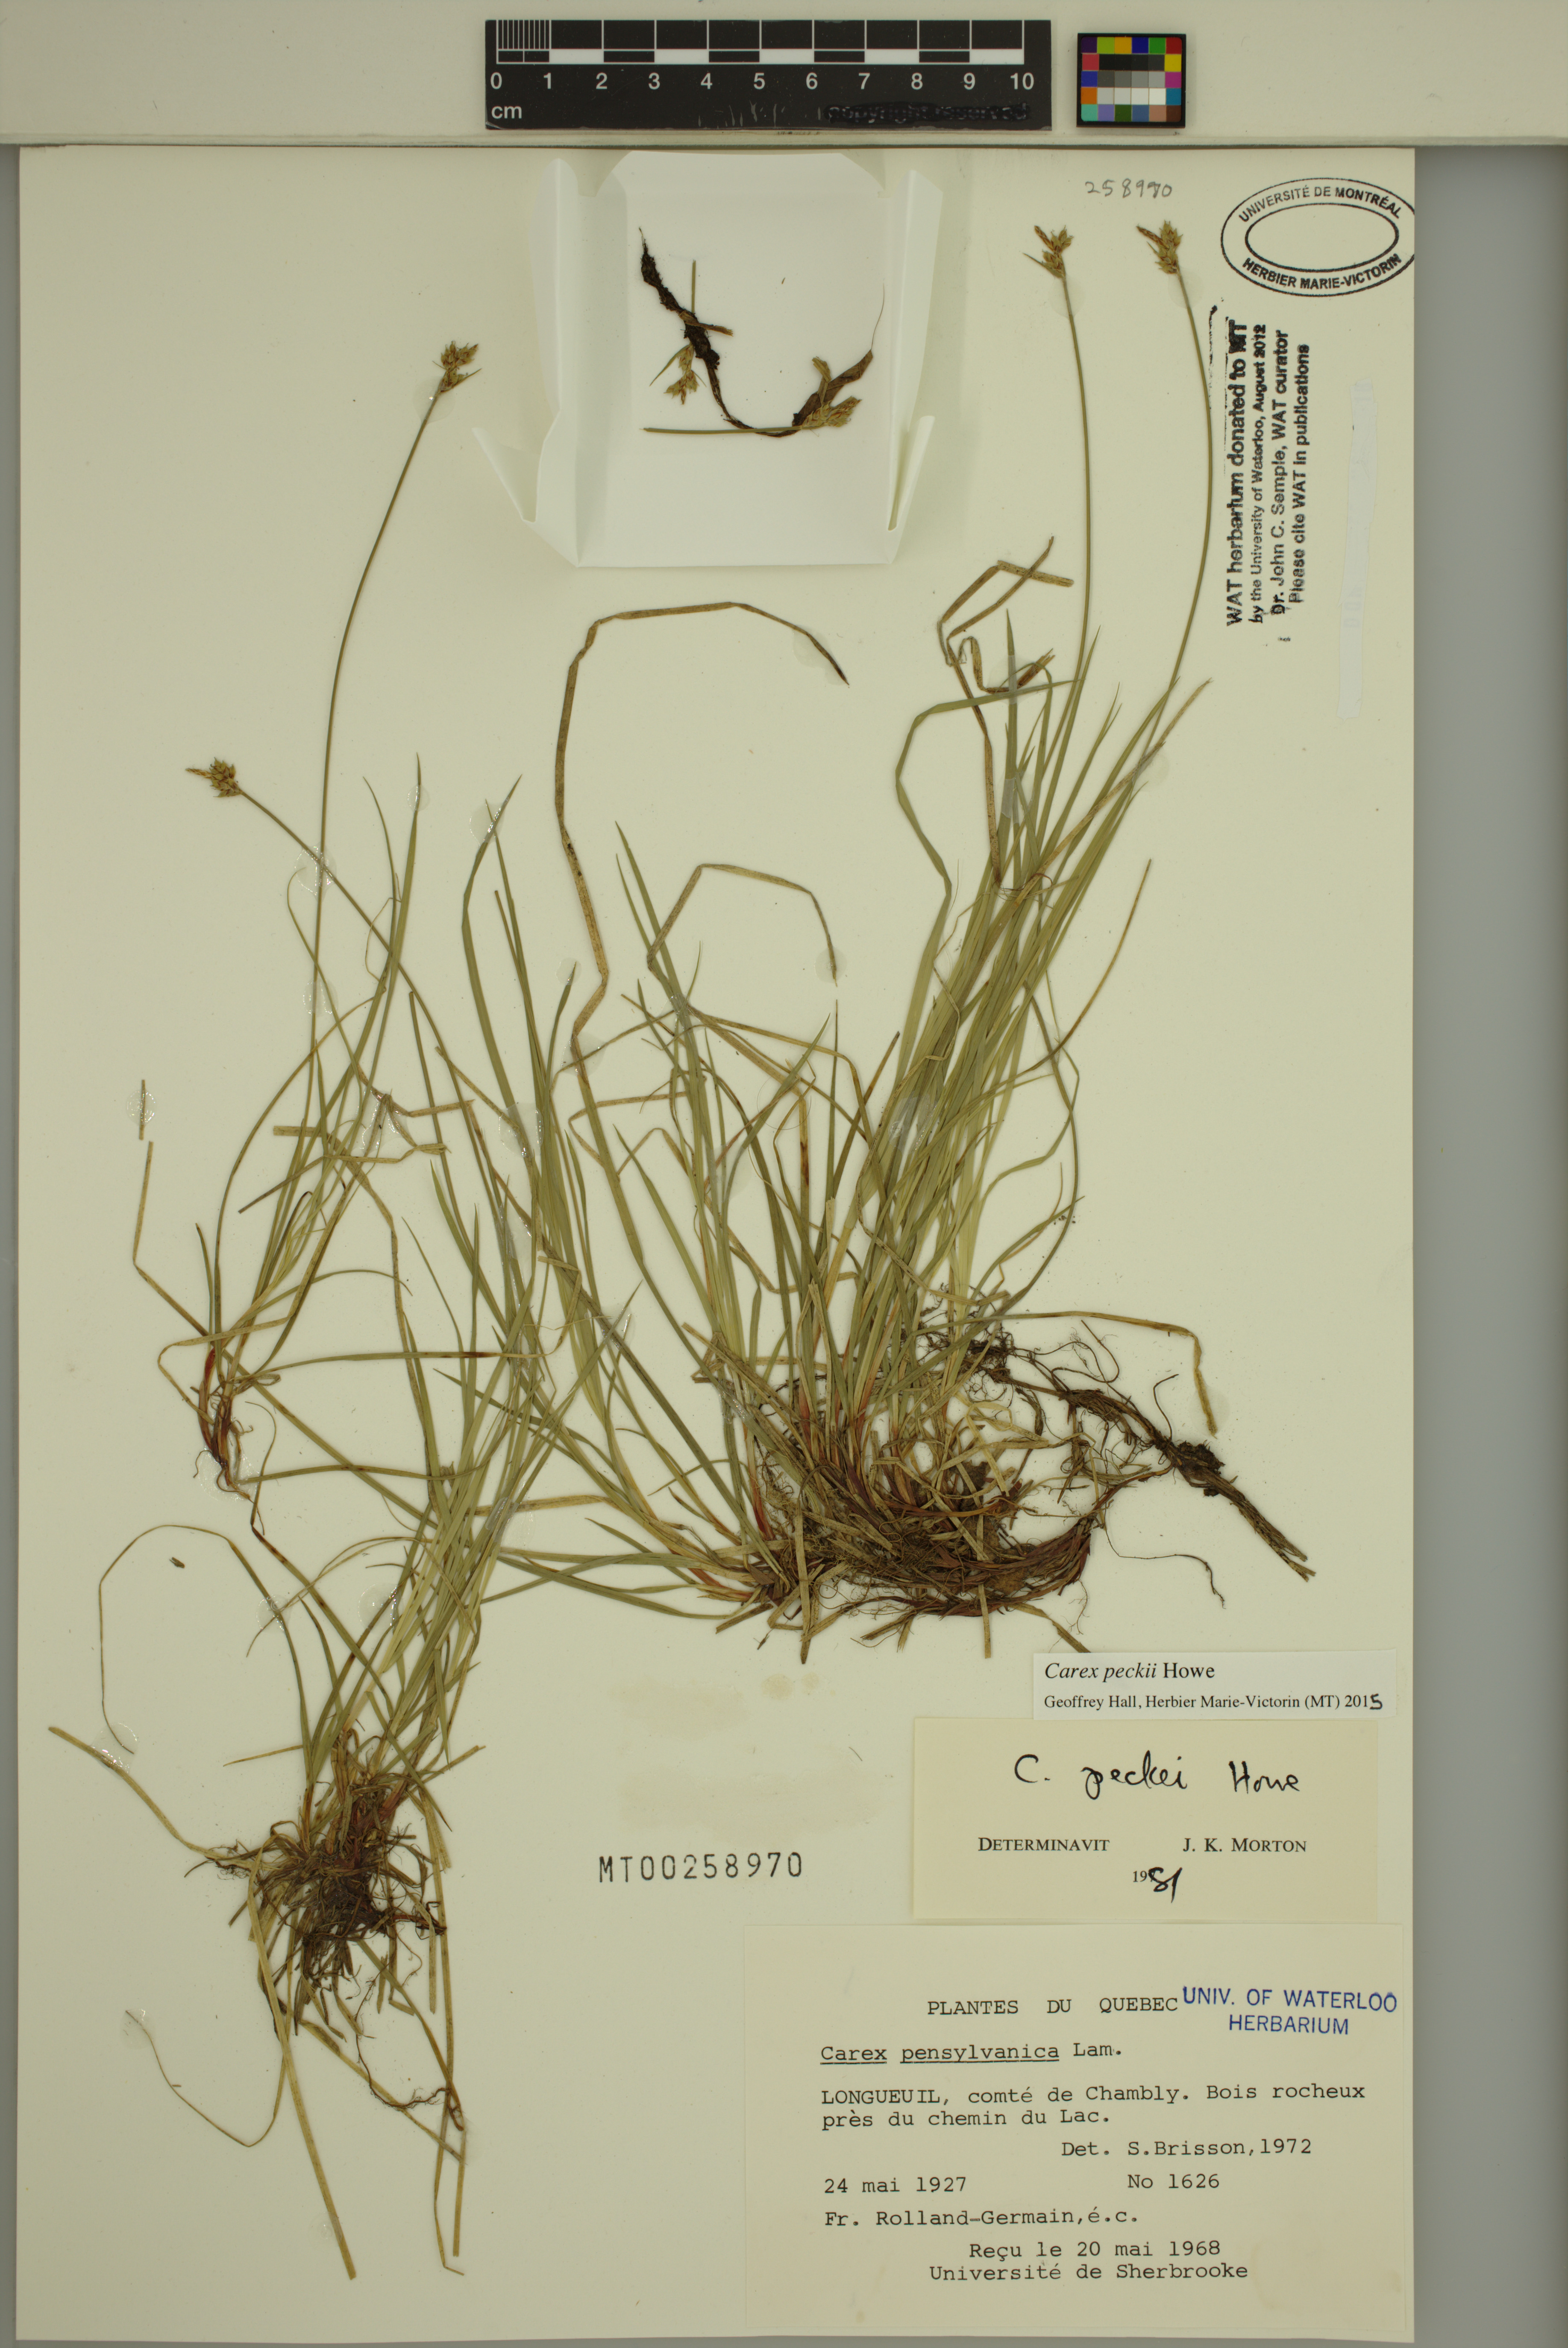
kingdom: Plantae
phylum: Tracheophyta
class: Liliopsida
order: Poales
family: Cyperaceae
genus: Carex
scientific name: Carex peckii
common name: Peck's oak sedge
